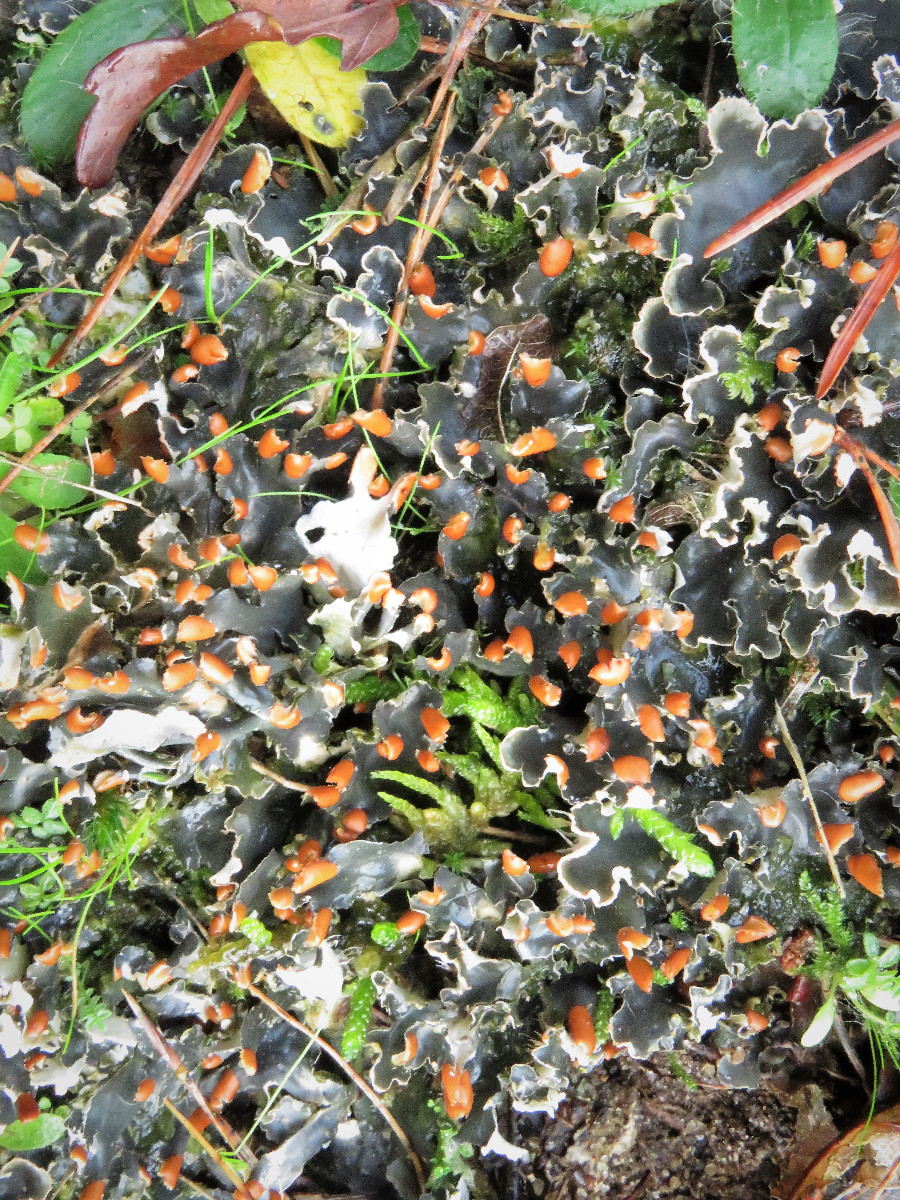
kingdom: Fungi
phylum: Ascomycota
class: Lecanoromycetes
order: Peltigerales
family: Peltigeraceae
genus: Peltigera
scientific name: Peltigera hymenina
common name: hinde-skjoldlav
